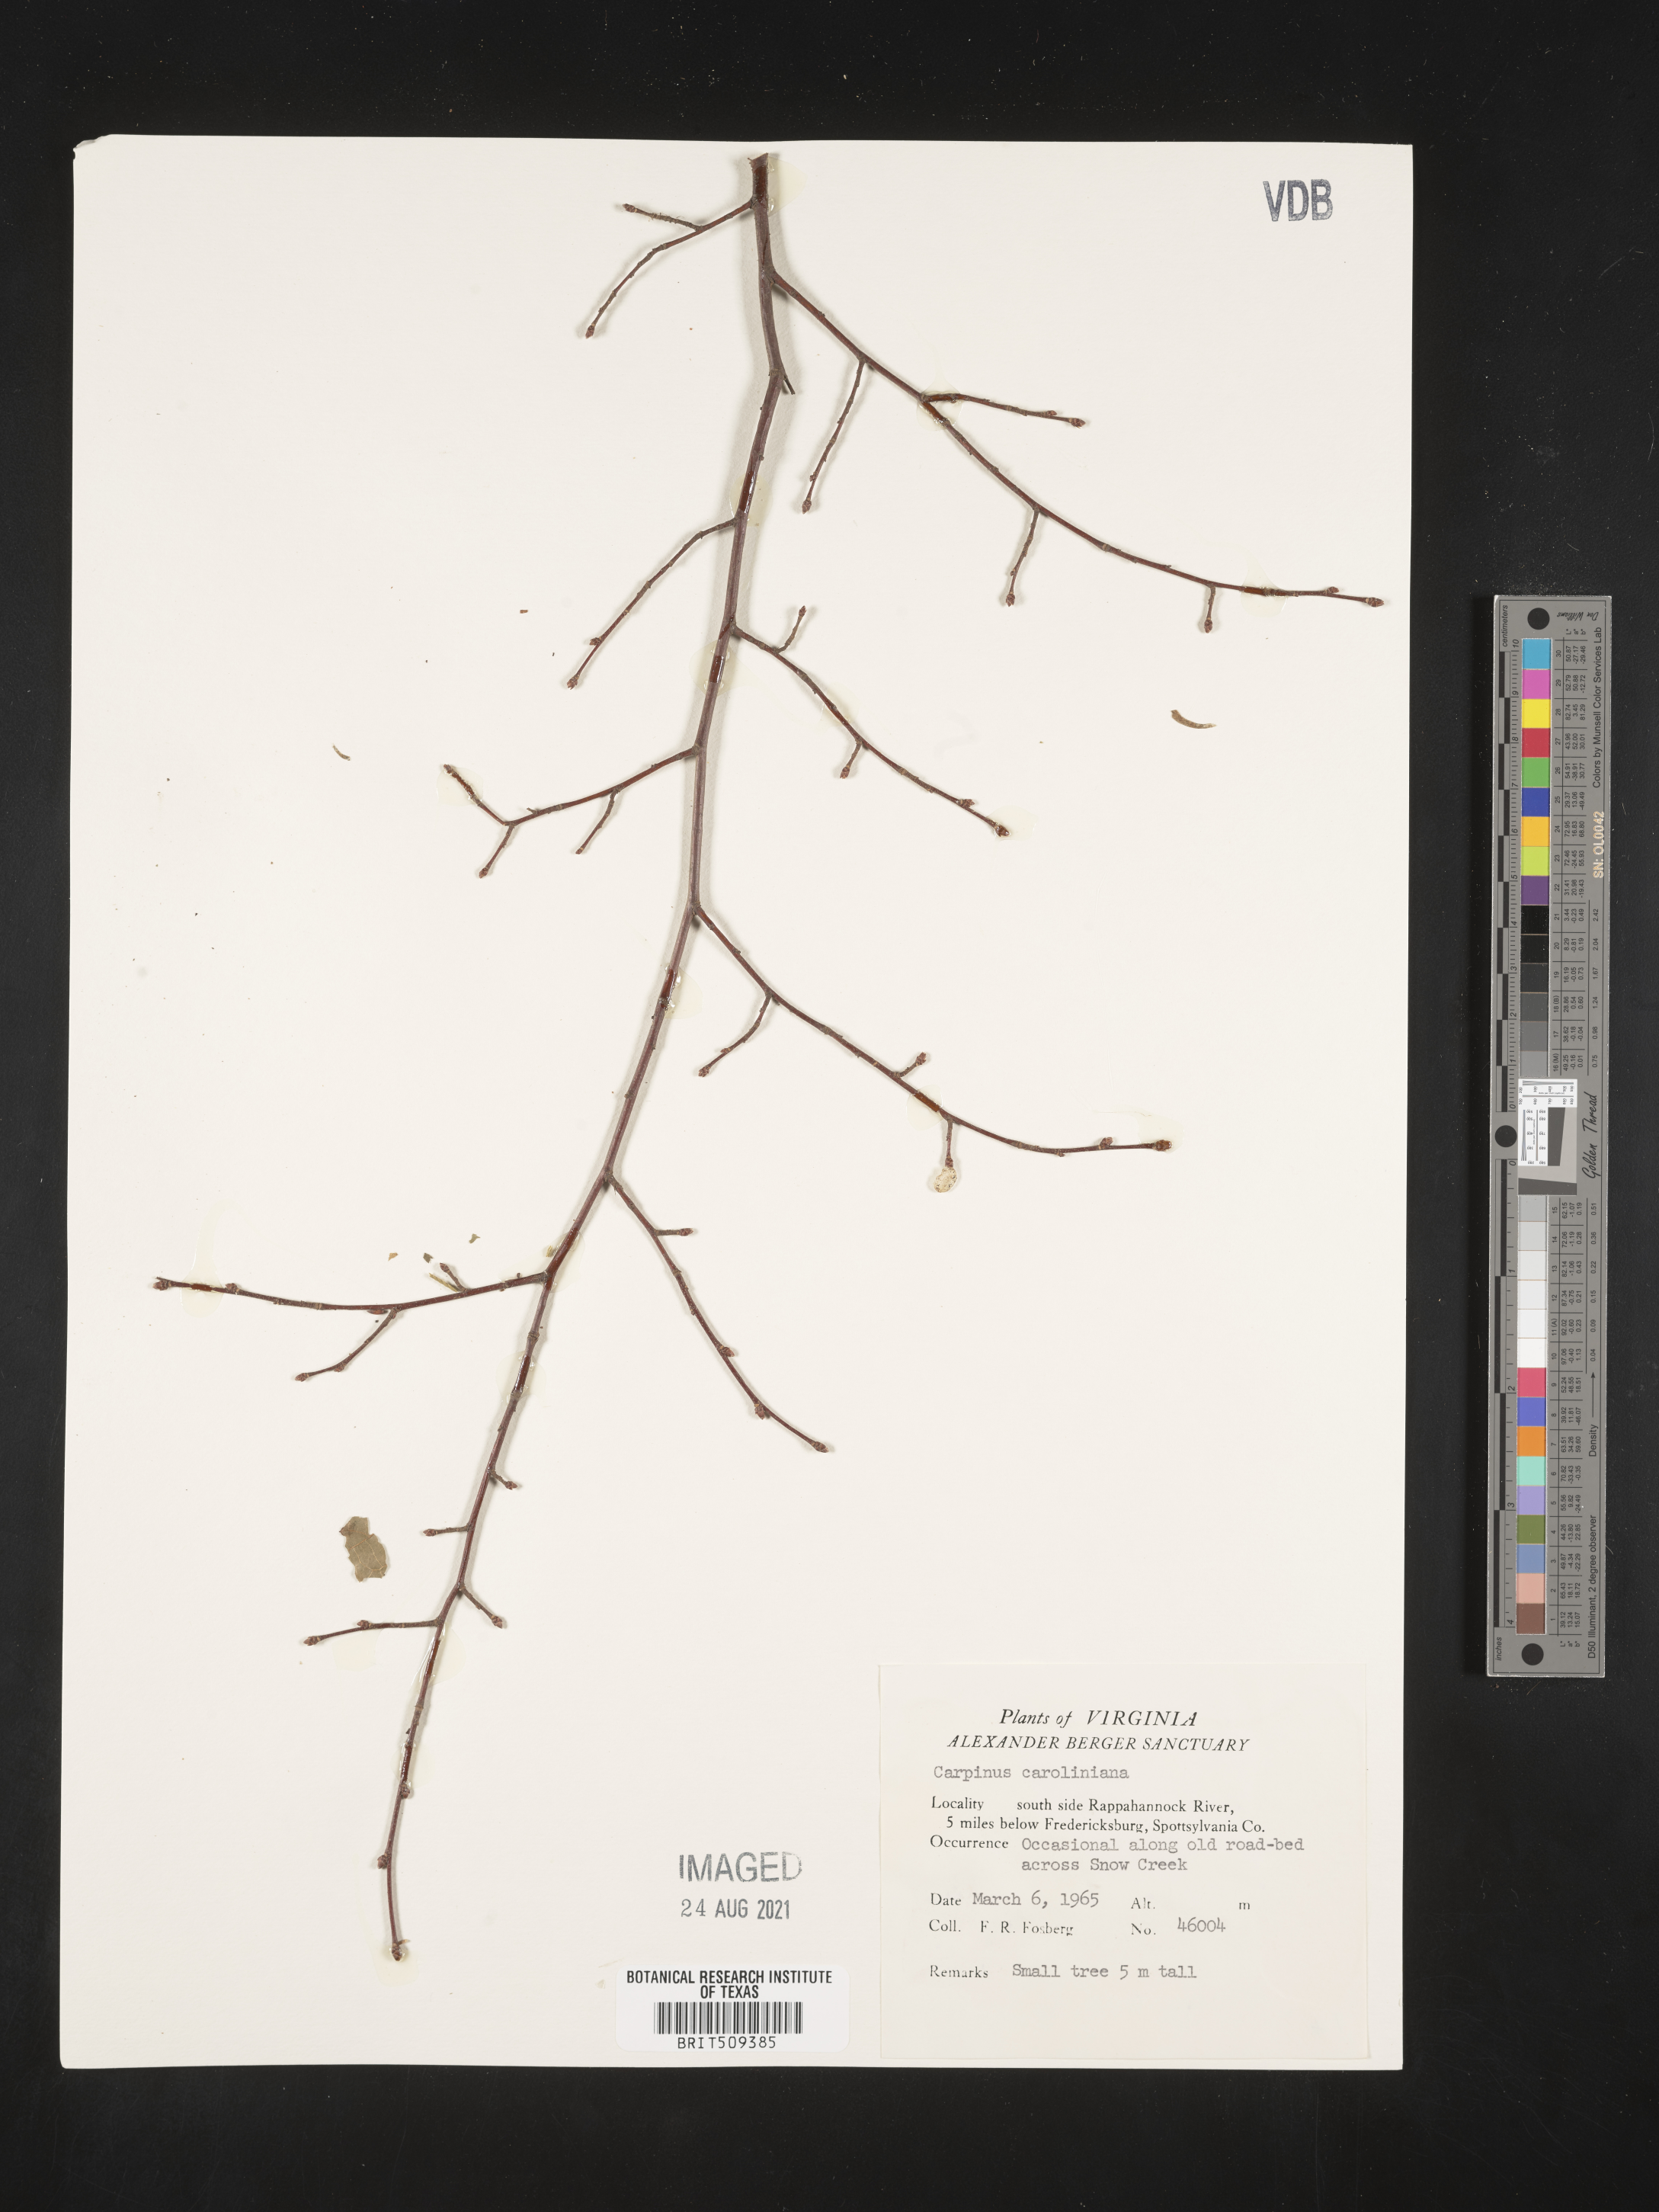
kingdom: Plantae
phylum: Tracheophyta
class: Magnoliopsida
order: Fagales
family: Betulaceae
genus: Carpinus
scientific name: Carpinus caroliniana
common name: American hornbeam
